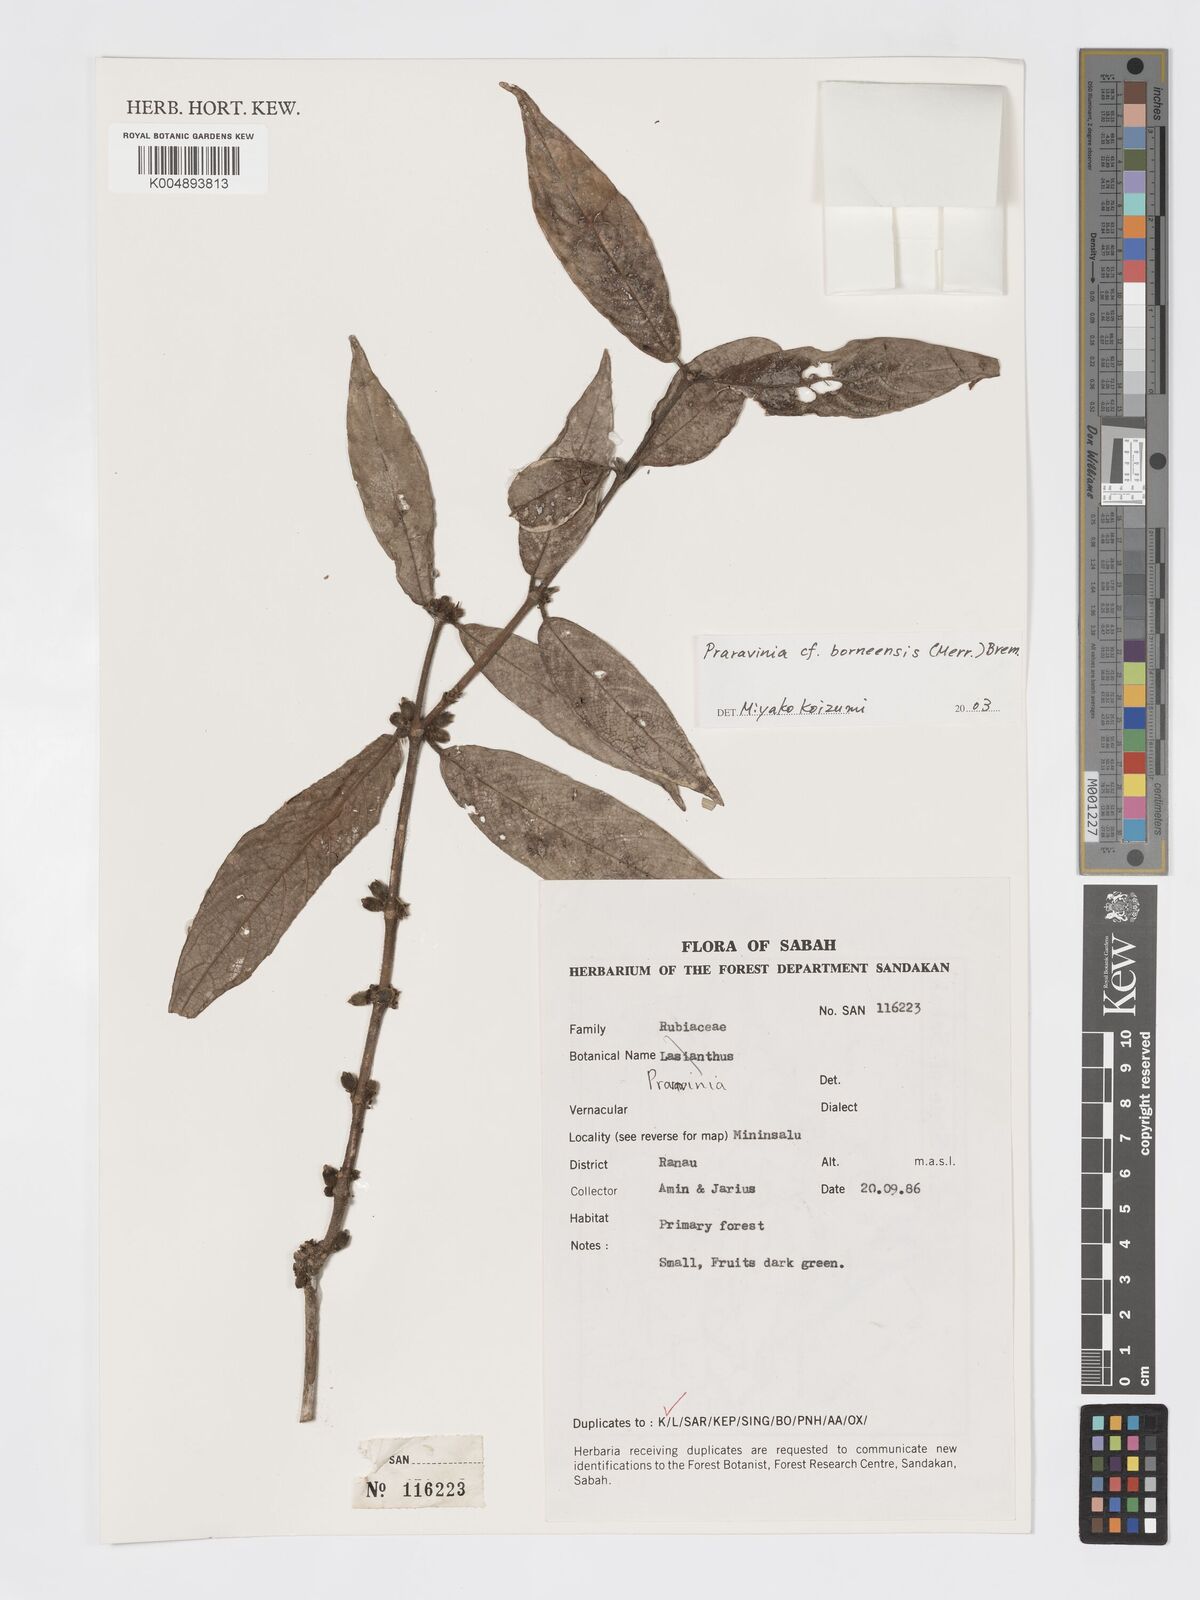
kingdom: Plantae
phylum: Tracheophyta
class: Magnoliopsida
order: Gentianales
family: Rubiaceae
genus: Praravinia
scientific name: Praravinia borneensis
